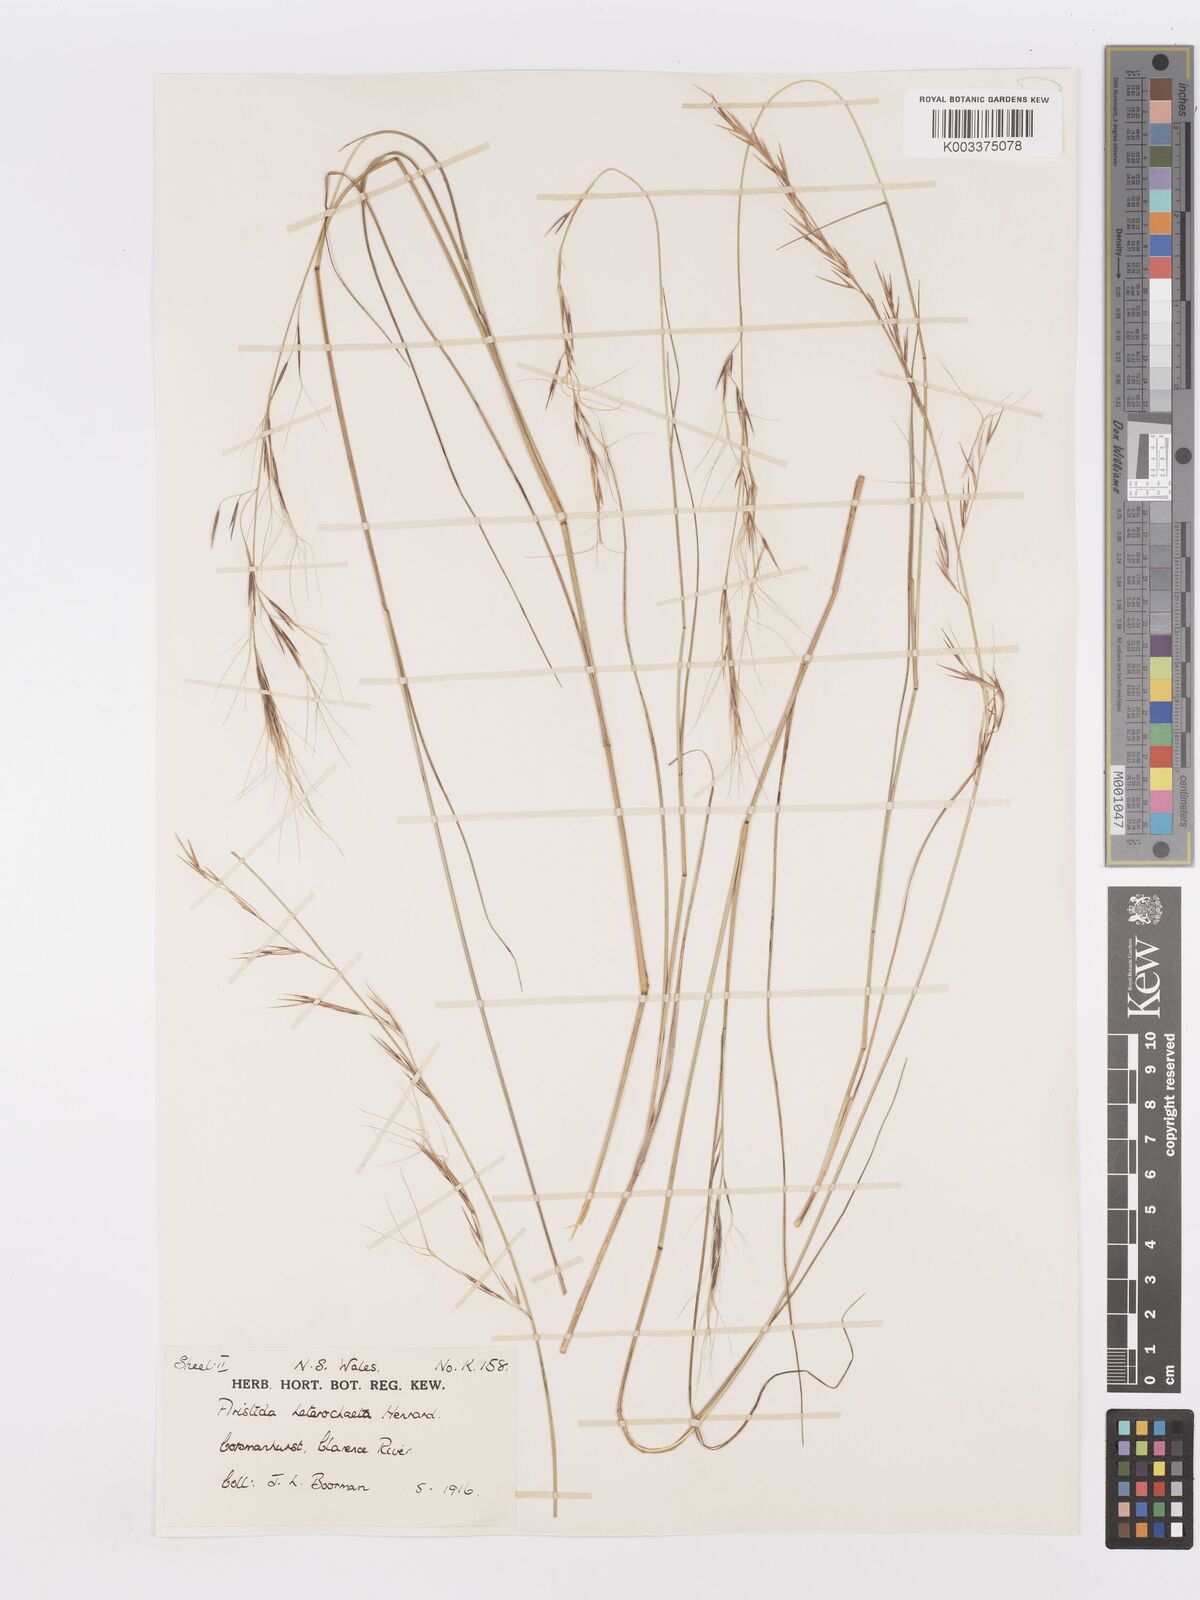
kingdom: Plantae
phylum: Tracheophyta
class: Liliopsida
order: Poales
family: Poaceae
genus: Aristida
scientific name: Aristida warburgii
